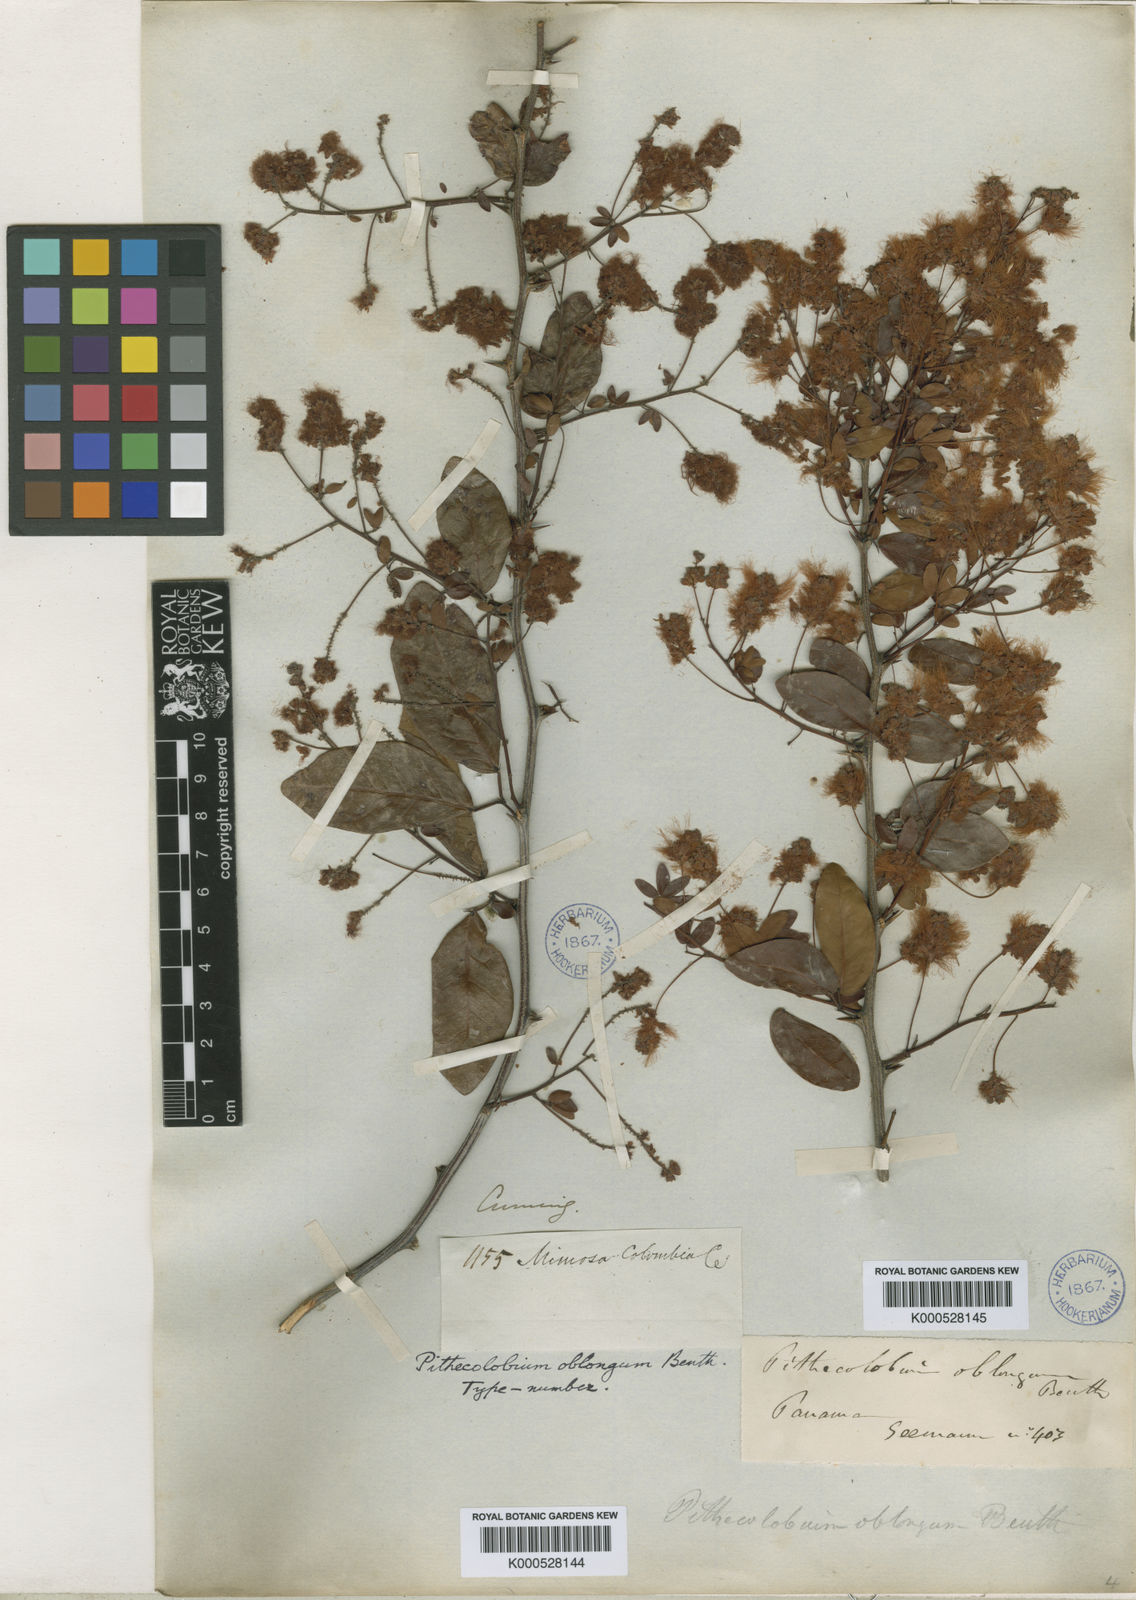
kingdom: Plantae
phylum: Tracheophyta
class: Magnoliopsida
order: Fabales
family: Fabaceae
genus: Pithecellobium
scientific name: Pithecellobium oblongum
